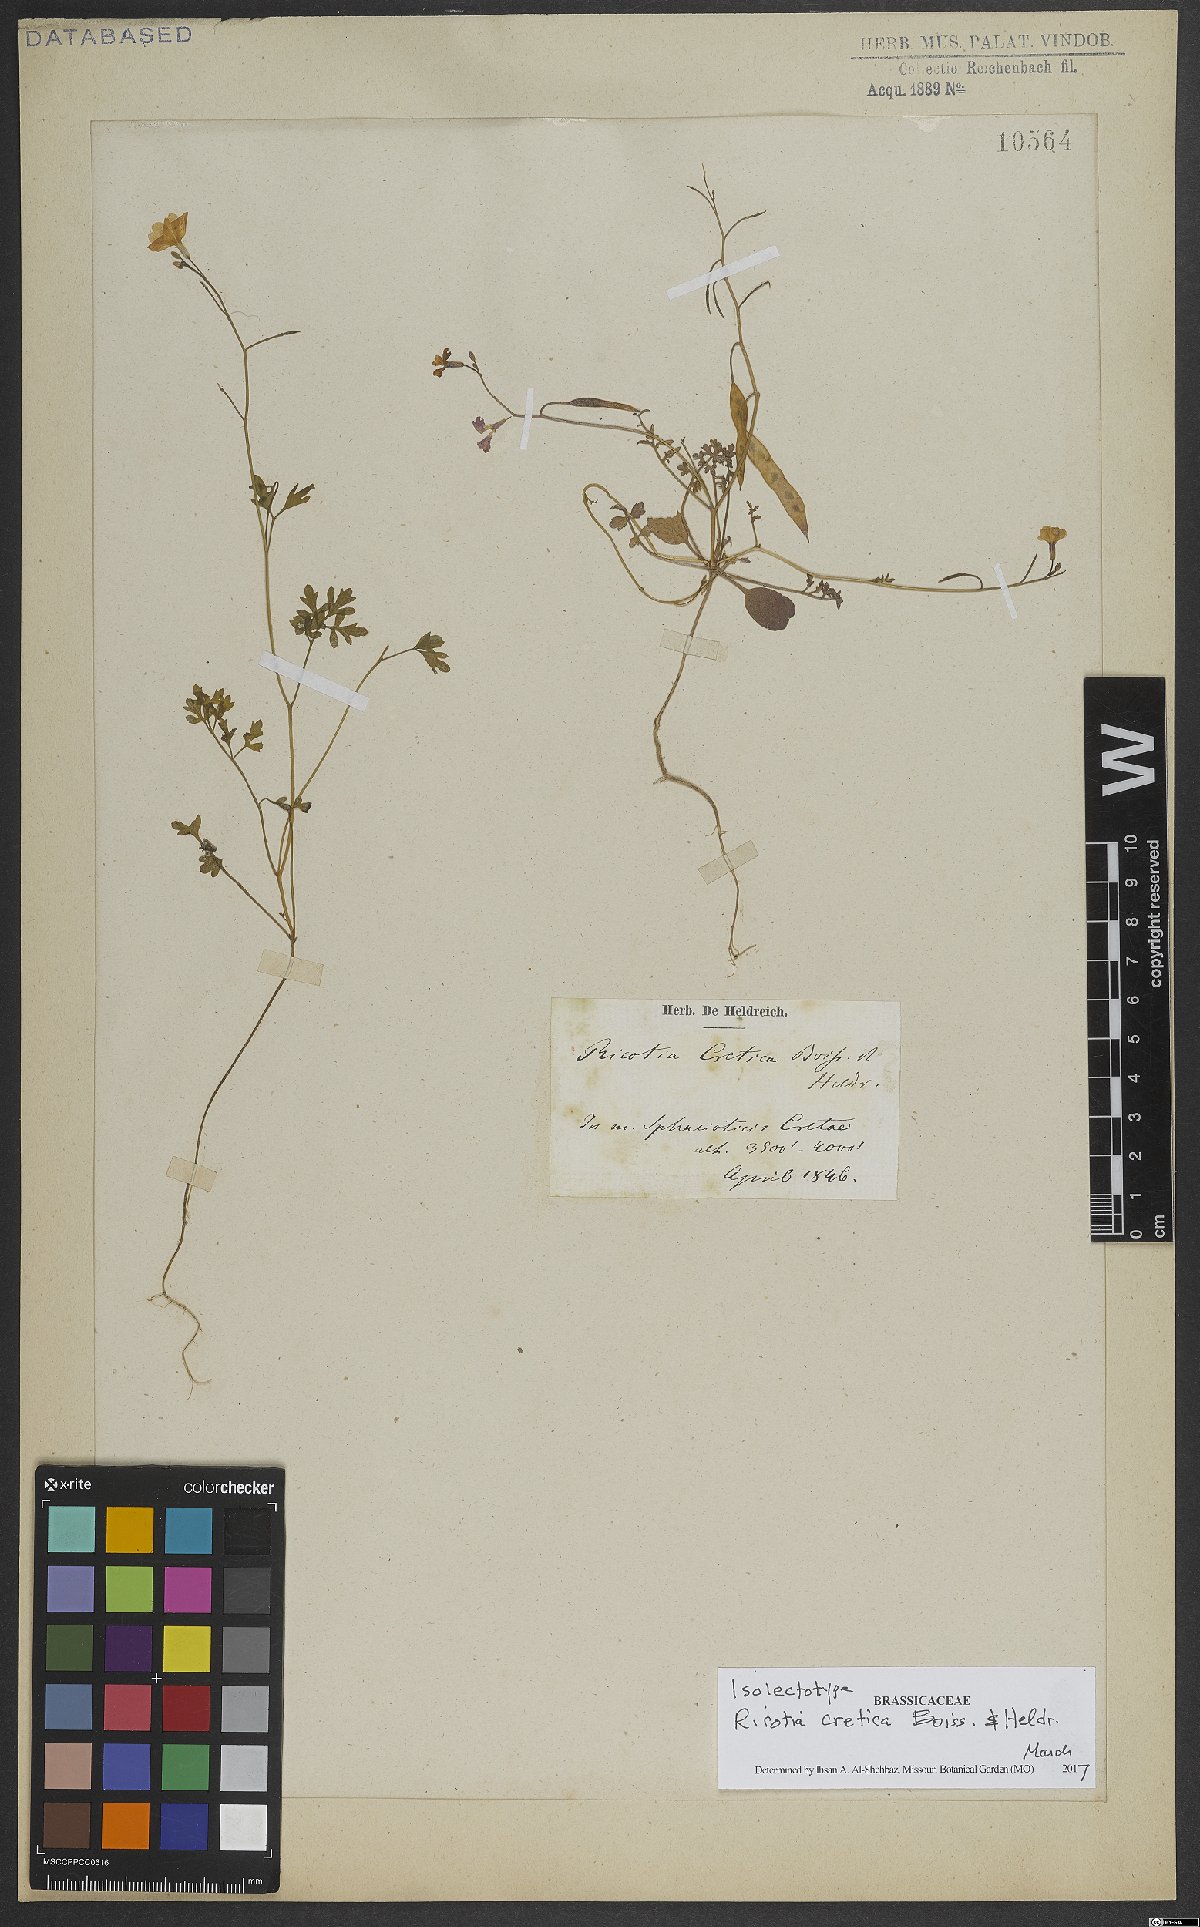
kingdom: Plantae
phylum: Tracheophyta
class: Magnoliopsida
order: Brassicales
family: Brassicaceae
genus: Ricotia
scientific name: Ricotia cretica
